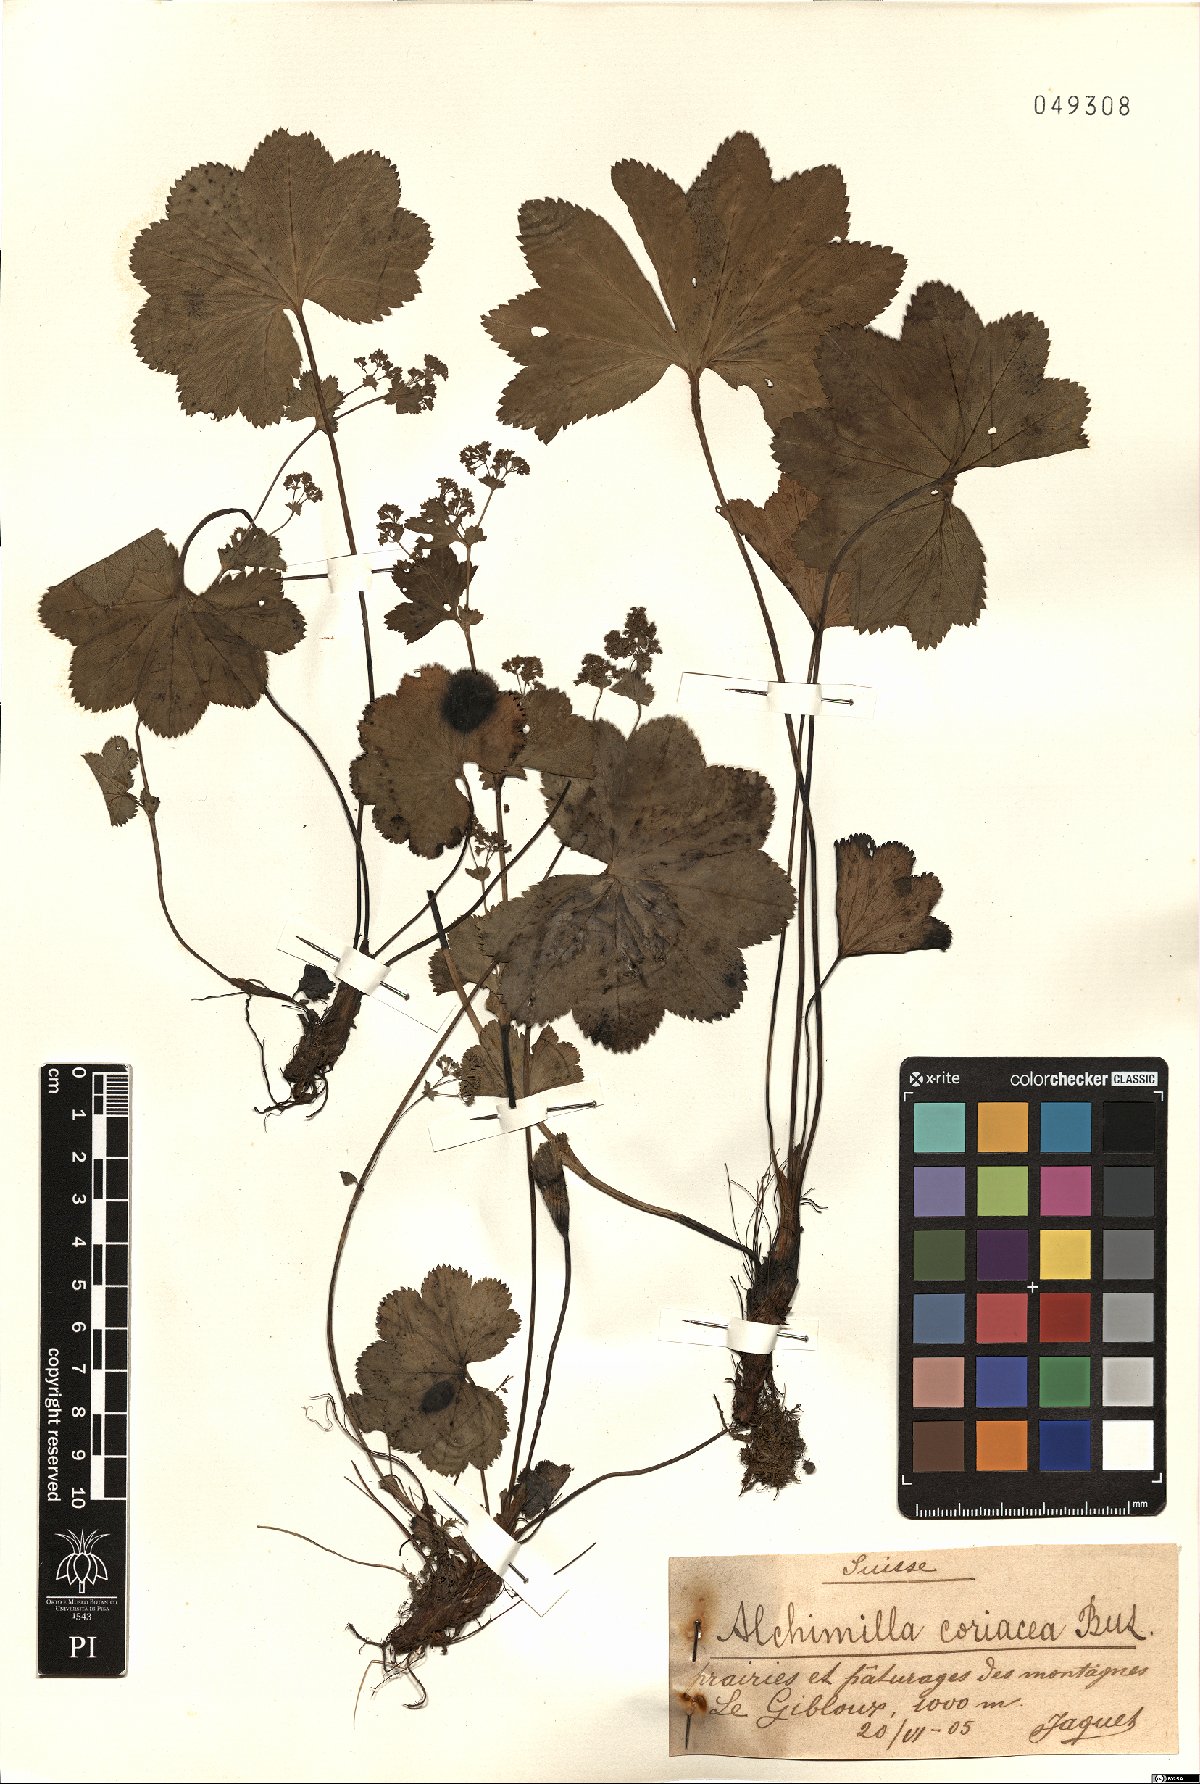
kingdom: Plantae
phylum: Tracheophyta
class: Magnoliopsida
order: Rosales
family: Rosaceae
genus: Alchemilla
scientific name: Alchemilla coriacea
